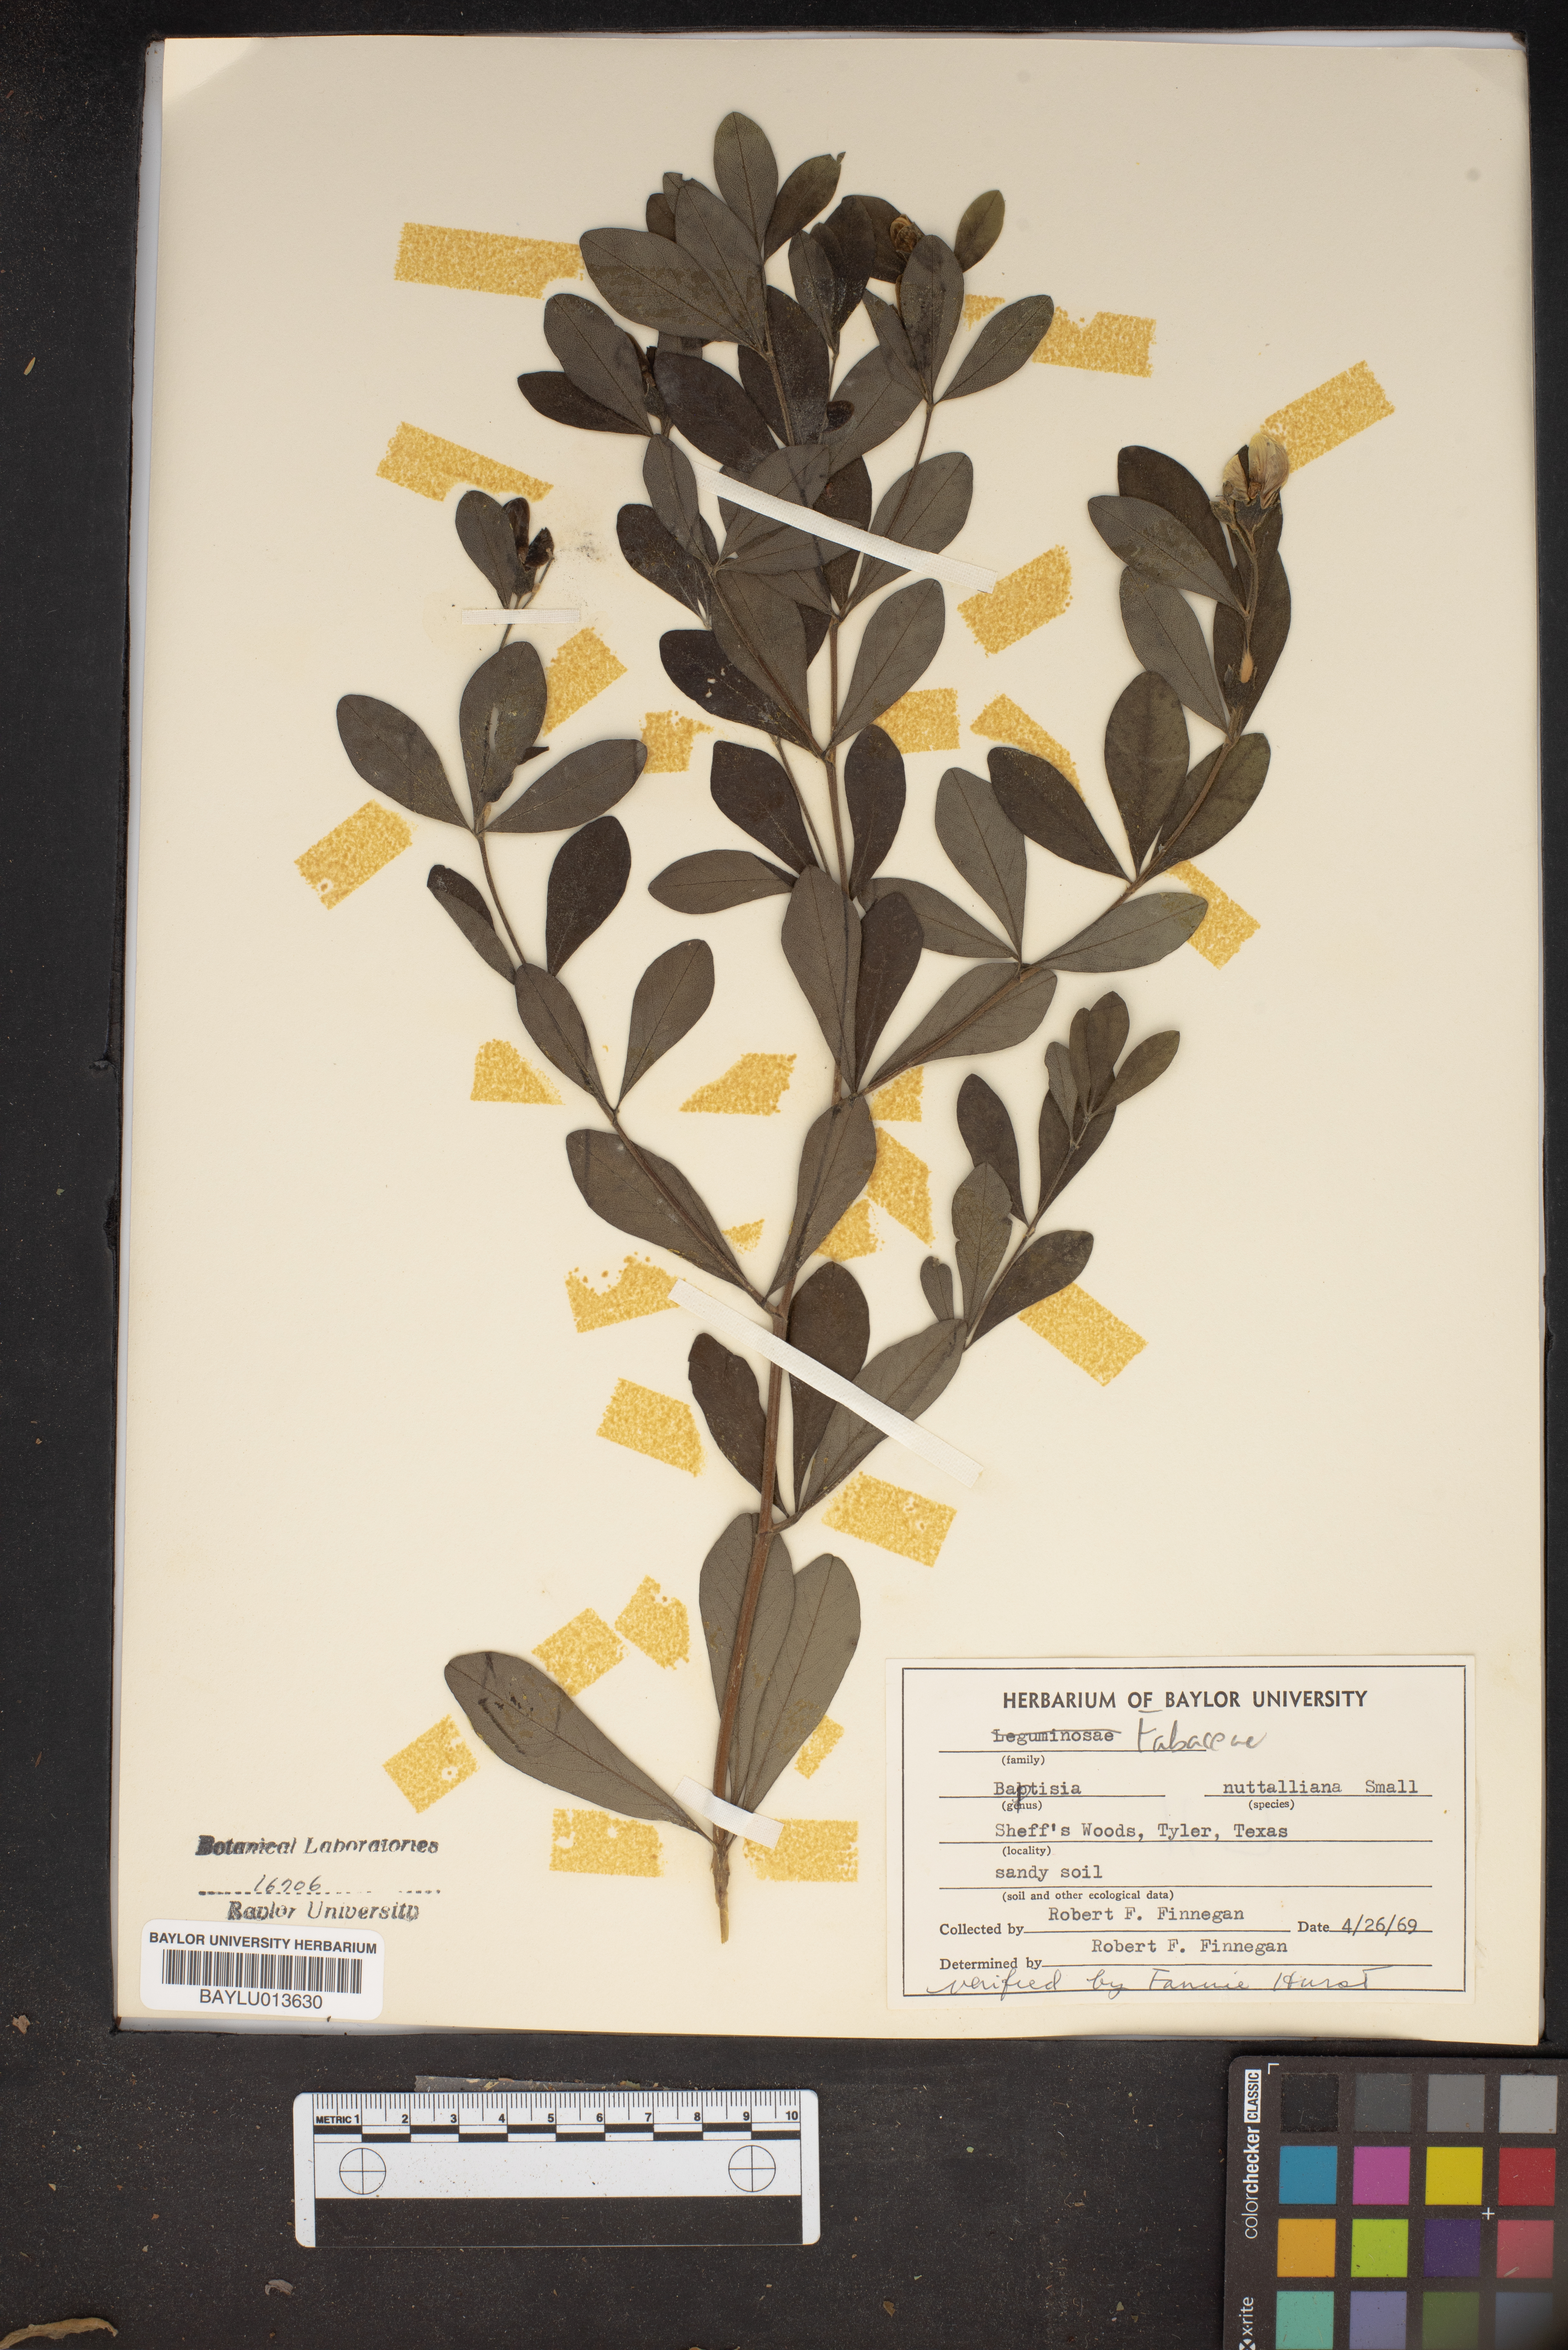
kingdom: Plantae
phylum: Tracheophyta
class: Magnoliopsida
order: Fabales
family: Fabaceae
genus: Baptisia
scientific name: Baptisia nuttalliana
